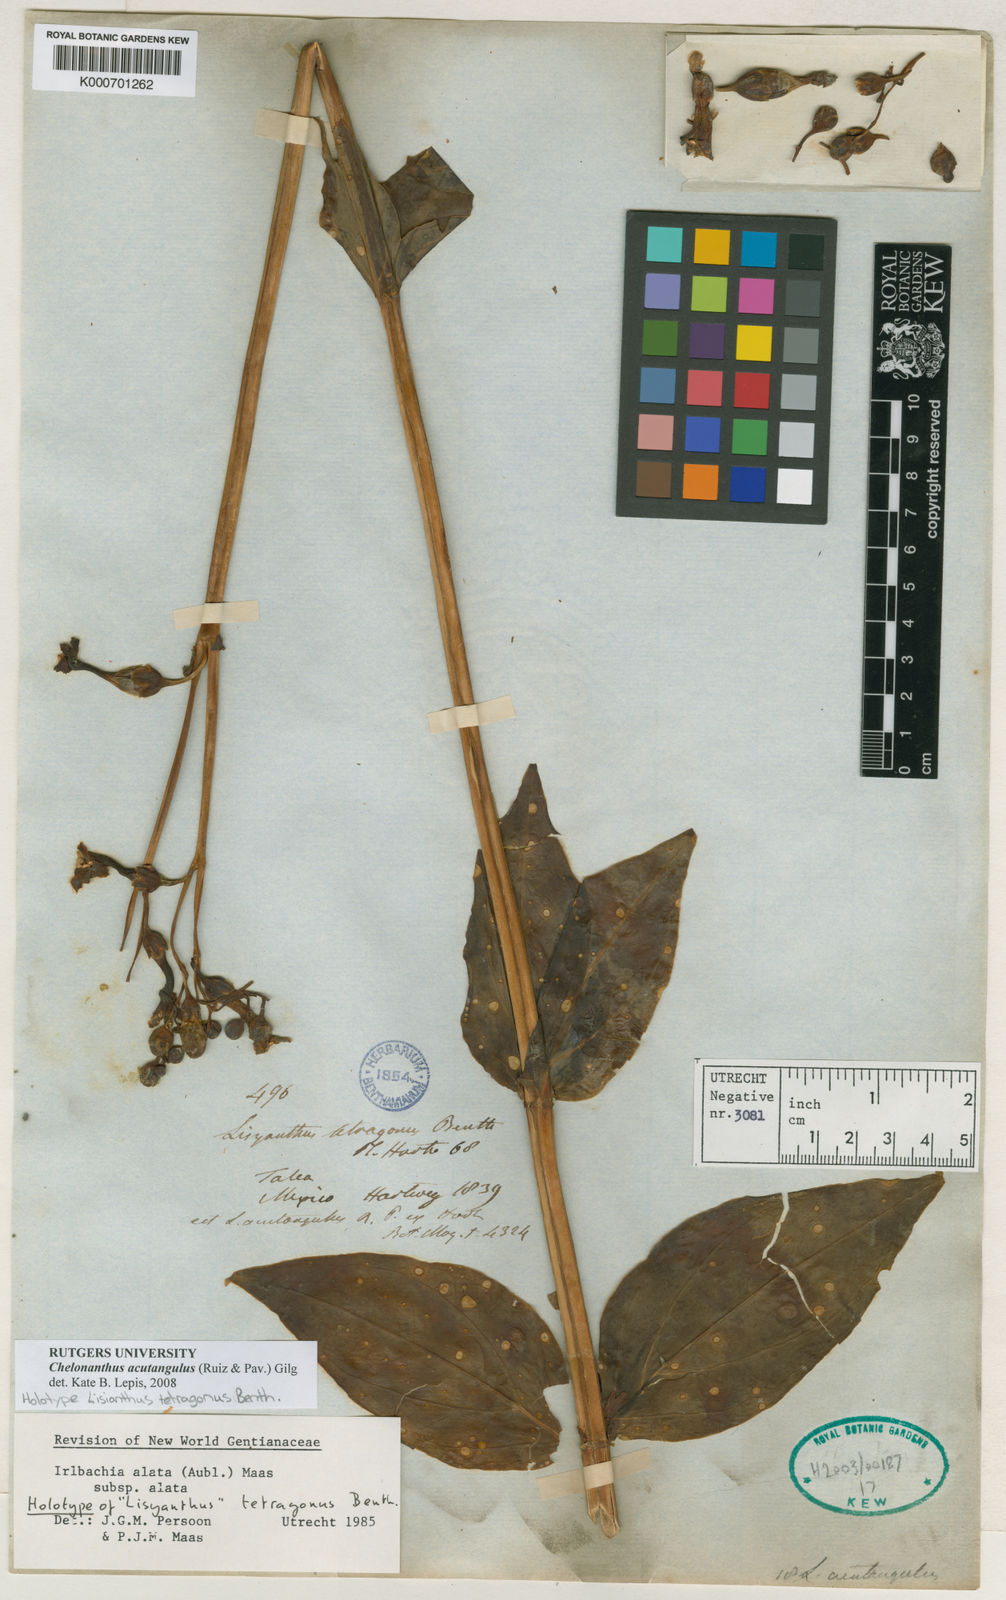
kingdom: Plantae
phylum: Tracheophyta
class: Magnoliopsida
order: Gentianales
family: Gentianaceae
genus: Chelonanthus
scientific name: Chelonanthus alatus
